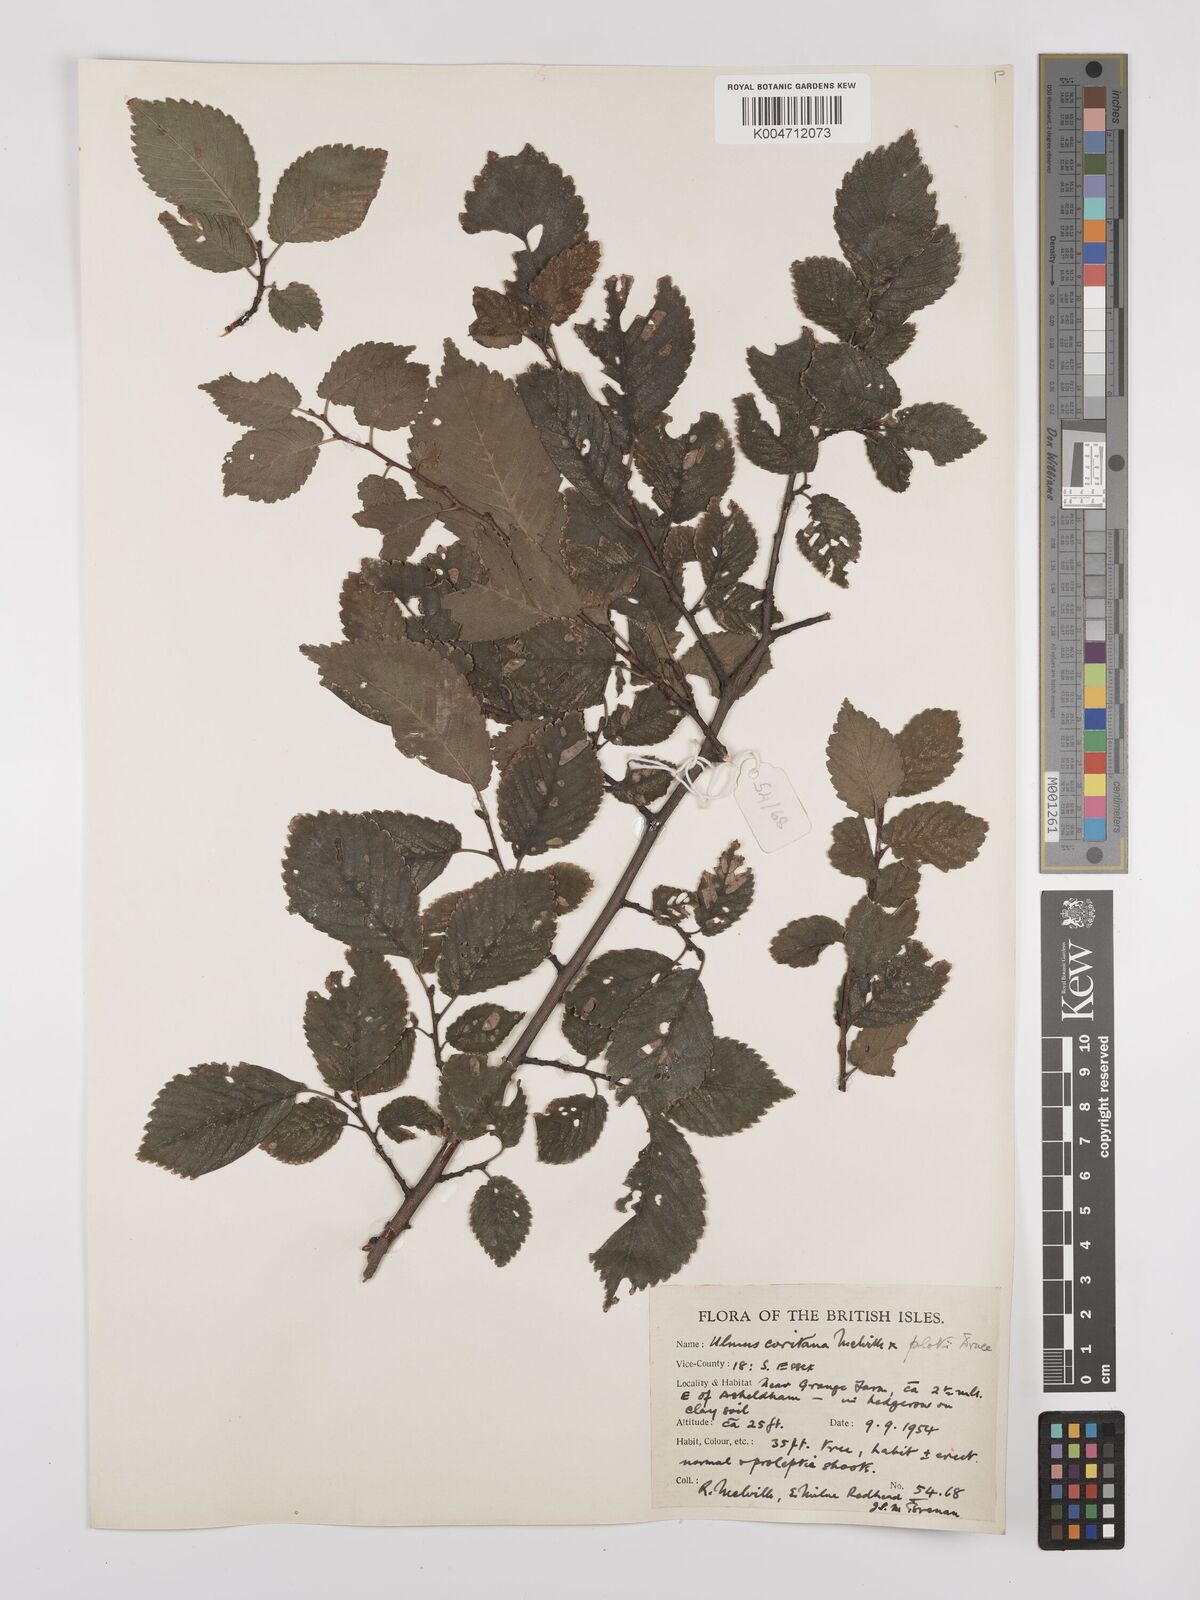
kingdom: Plantae
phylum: Tracheophyta
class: Magnoliopsida
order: Rosales
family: Ulmaceae
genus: Ulmus
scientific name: Ulmus minor
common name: Small-leaved elm
